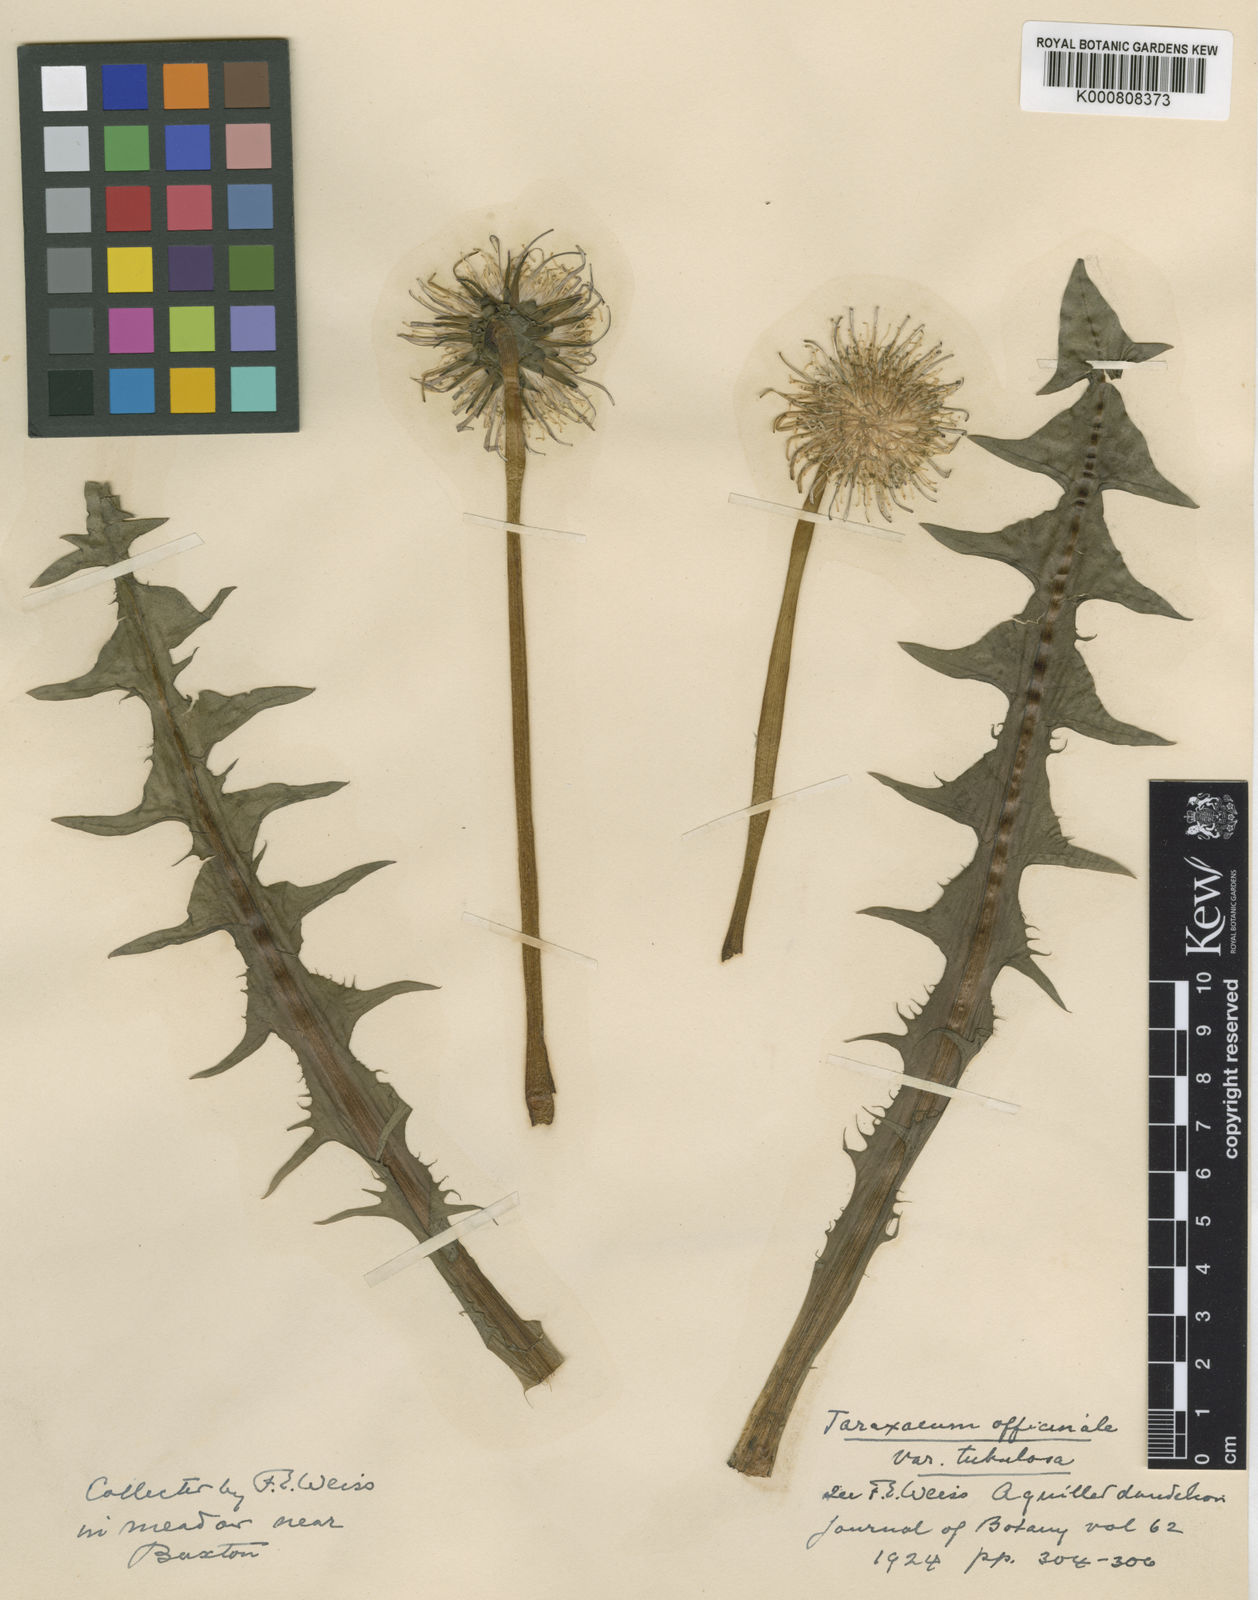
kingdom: Plantae
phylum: Tracheophyta
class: Magnoliopsida
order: Asterales
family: Asteraceae
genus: Taraxacum
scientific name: Taraxacum officinale
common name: Common dandelion
